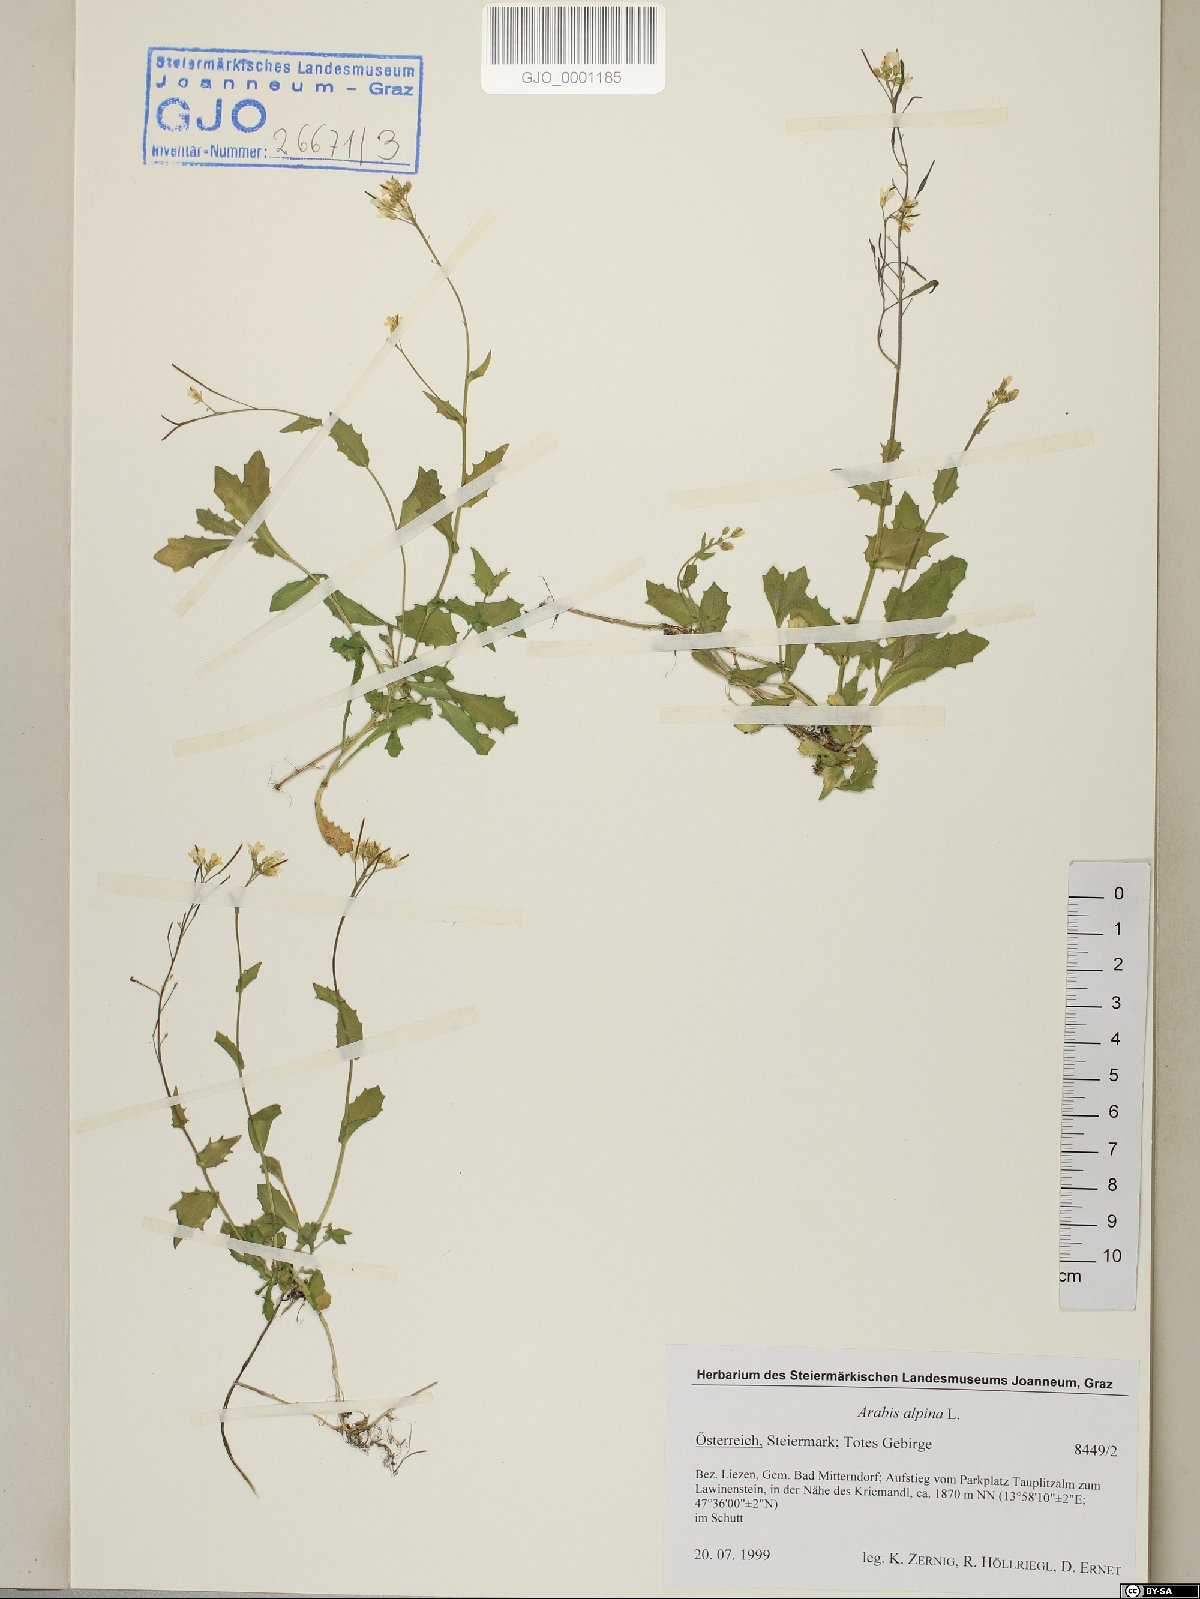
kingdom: Plantae
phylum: Tracheophyta
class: Magnoliopsida
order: Brassicales
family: Brassicaceae
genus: Arabis
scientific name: Arabis alpina
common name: Alpine rock-cress
